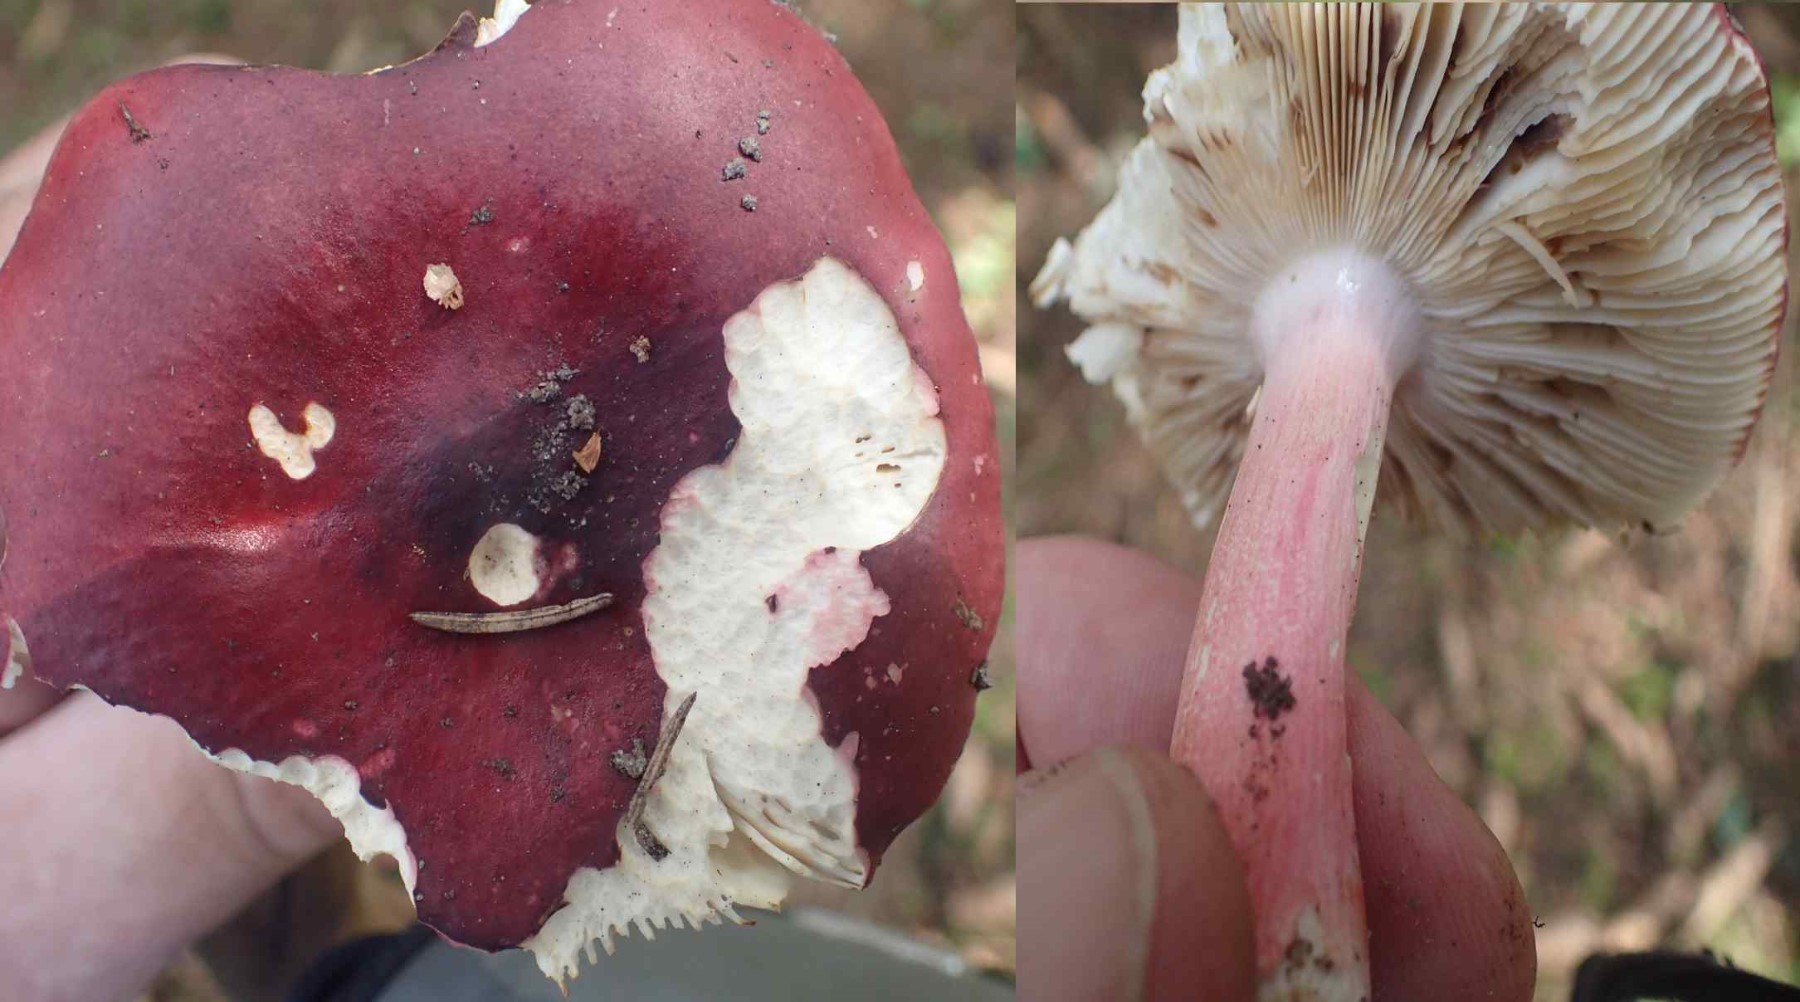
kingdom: Fungi
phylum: Basidiomycota
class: Agaricomycetes
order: Russulales
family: Russulaceae
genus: Russula
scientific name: Russula queletii
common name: Quélets skørhat
